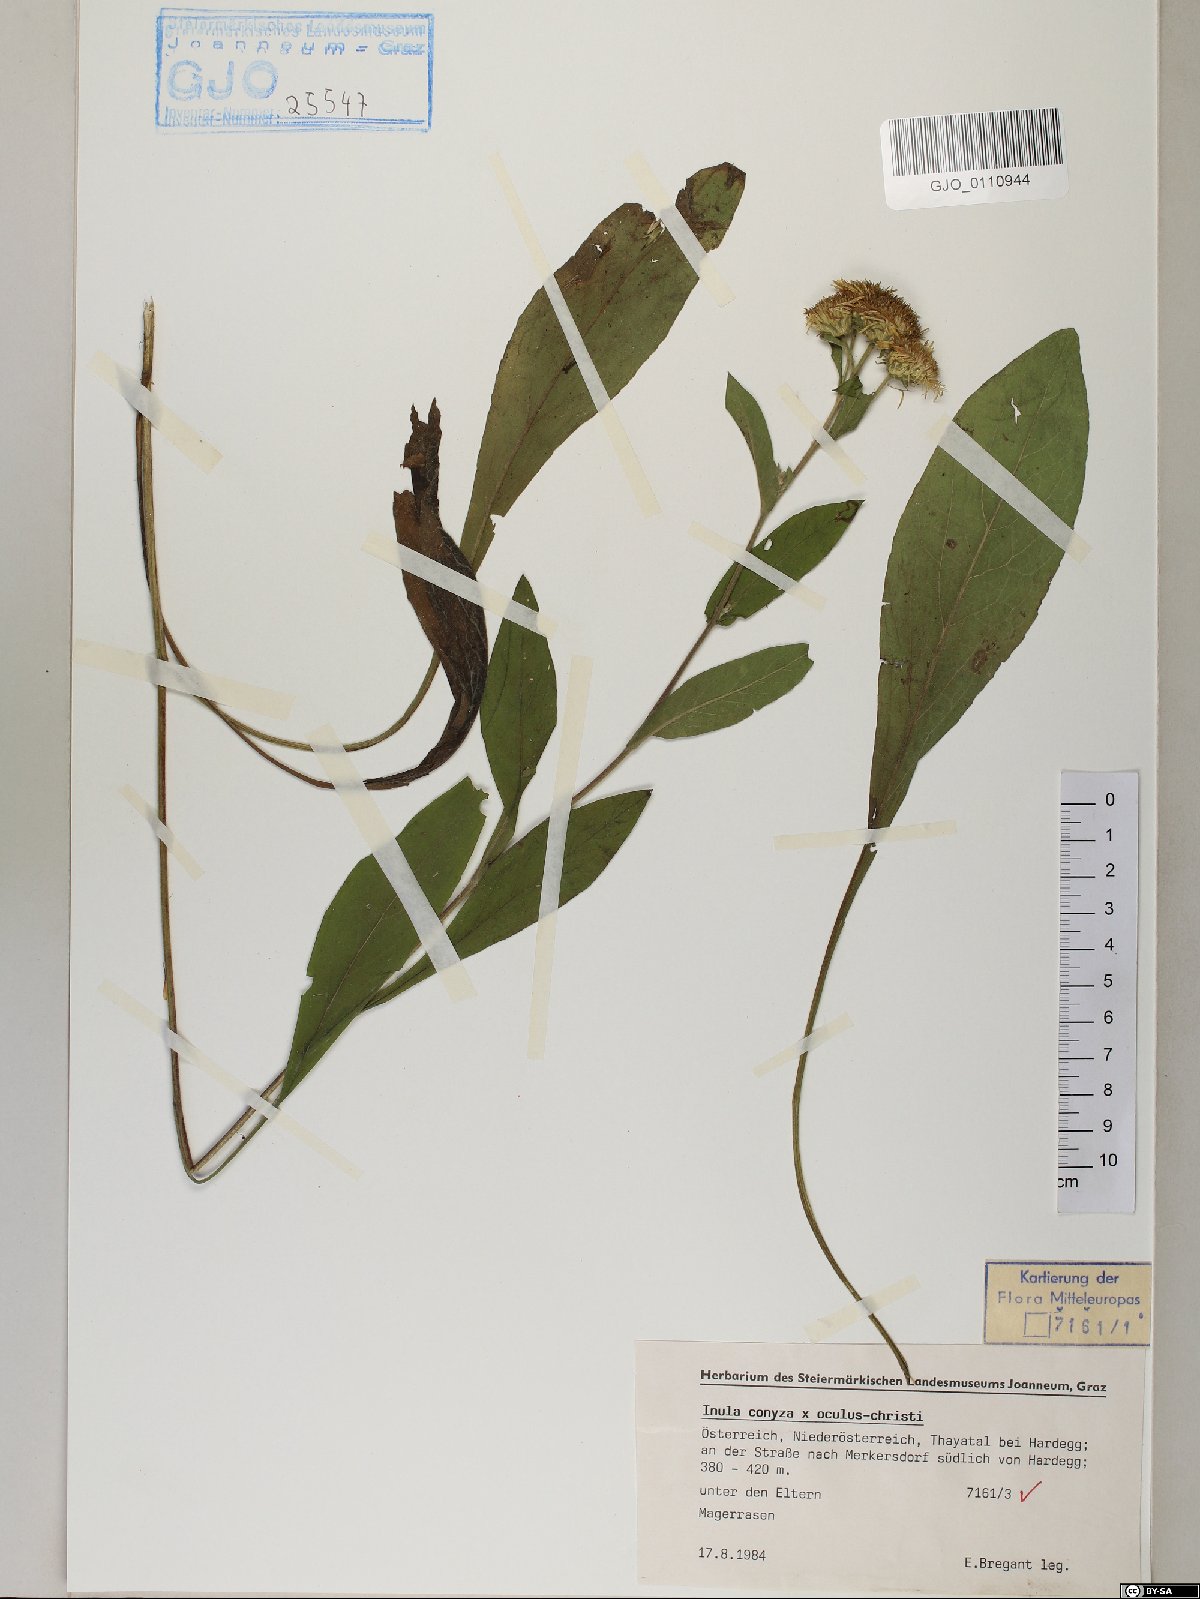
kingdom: Plantae
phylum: Tracheophyta
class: Magnoliopsida
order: Asterales
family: Asteraceae
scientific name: Asteraceae
